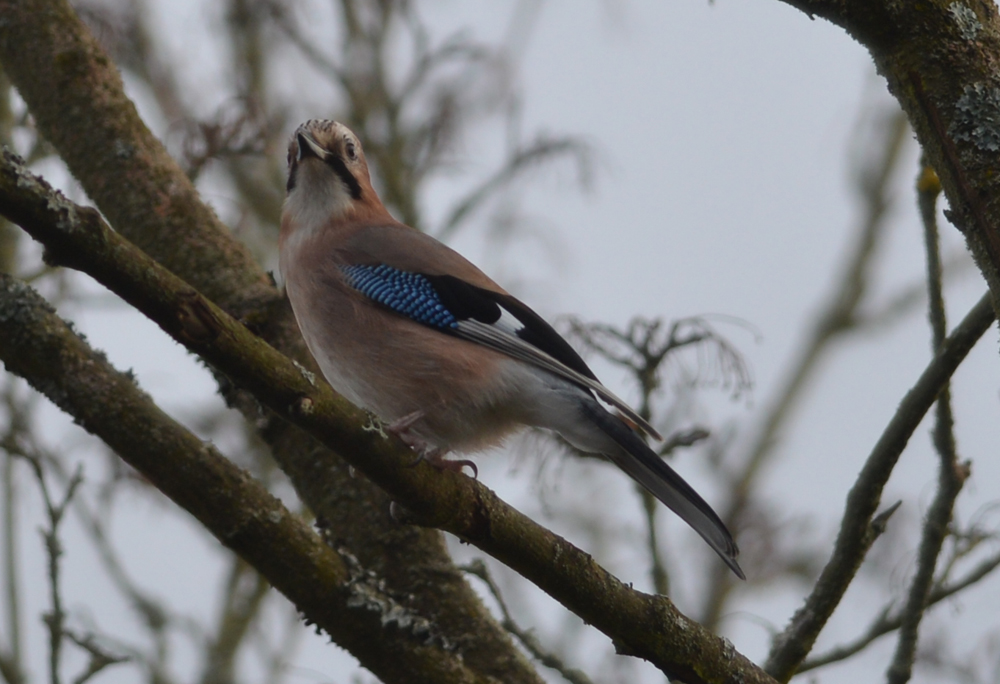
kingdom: Animalia
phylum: Chordata
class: Aves
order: Passeriformes
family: Corvidae
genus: Garrulus
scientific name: Garrulus glandarius
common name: Eurasian jay
